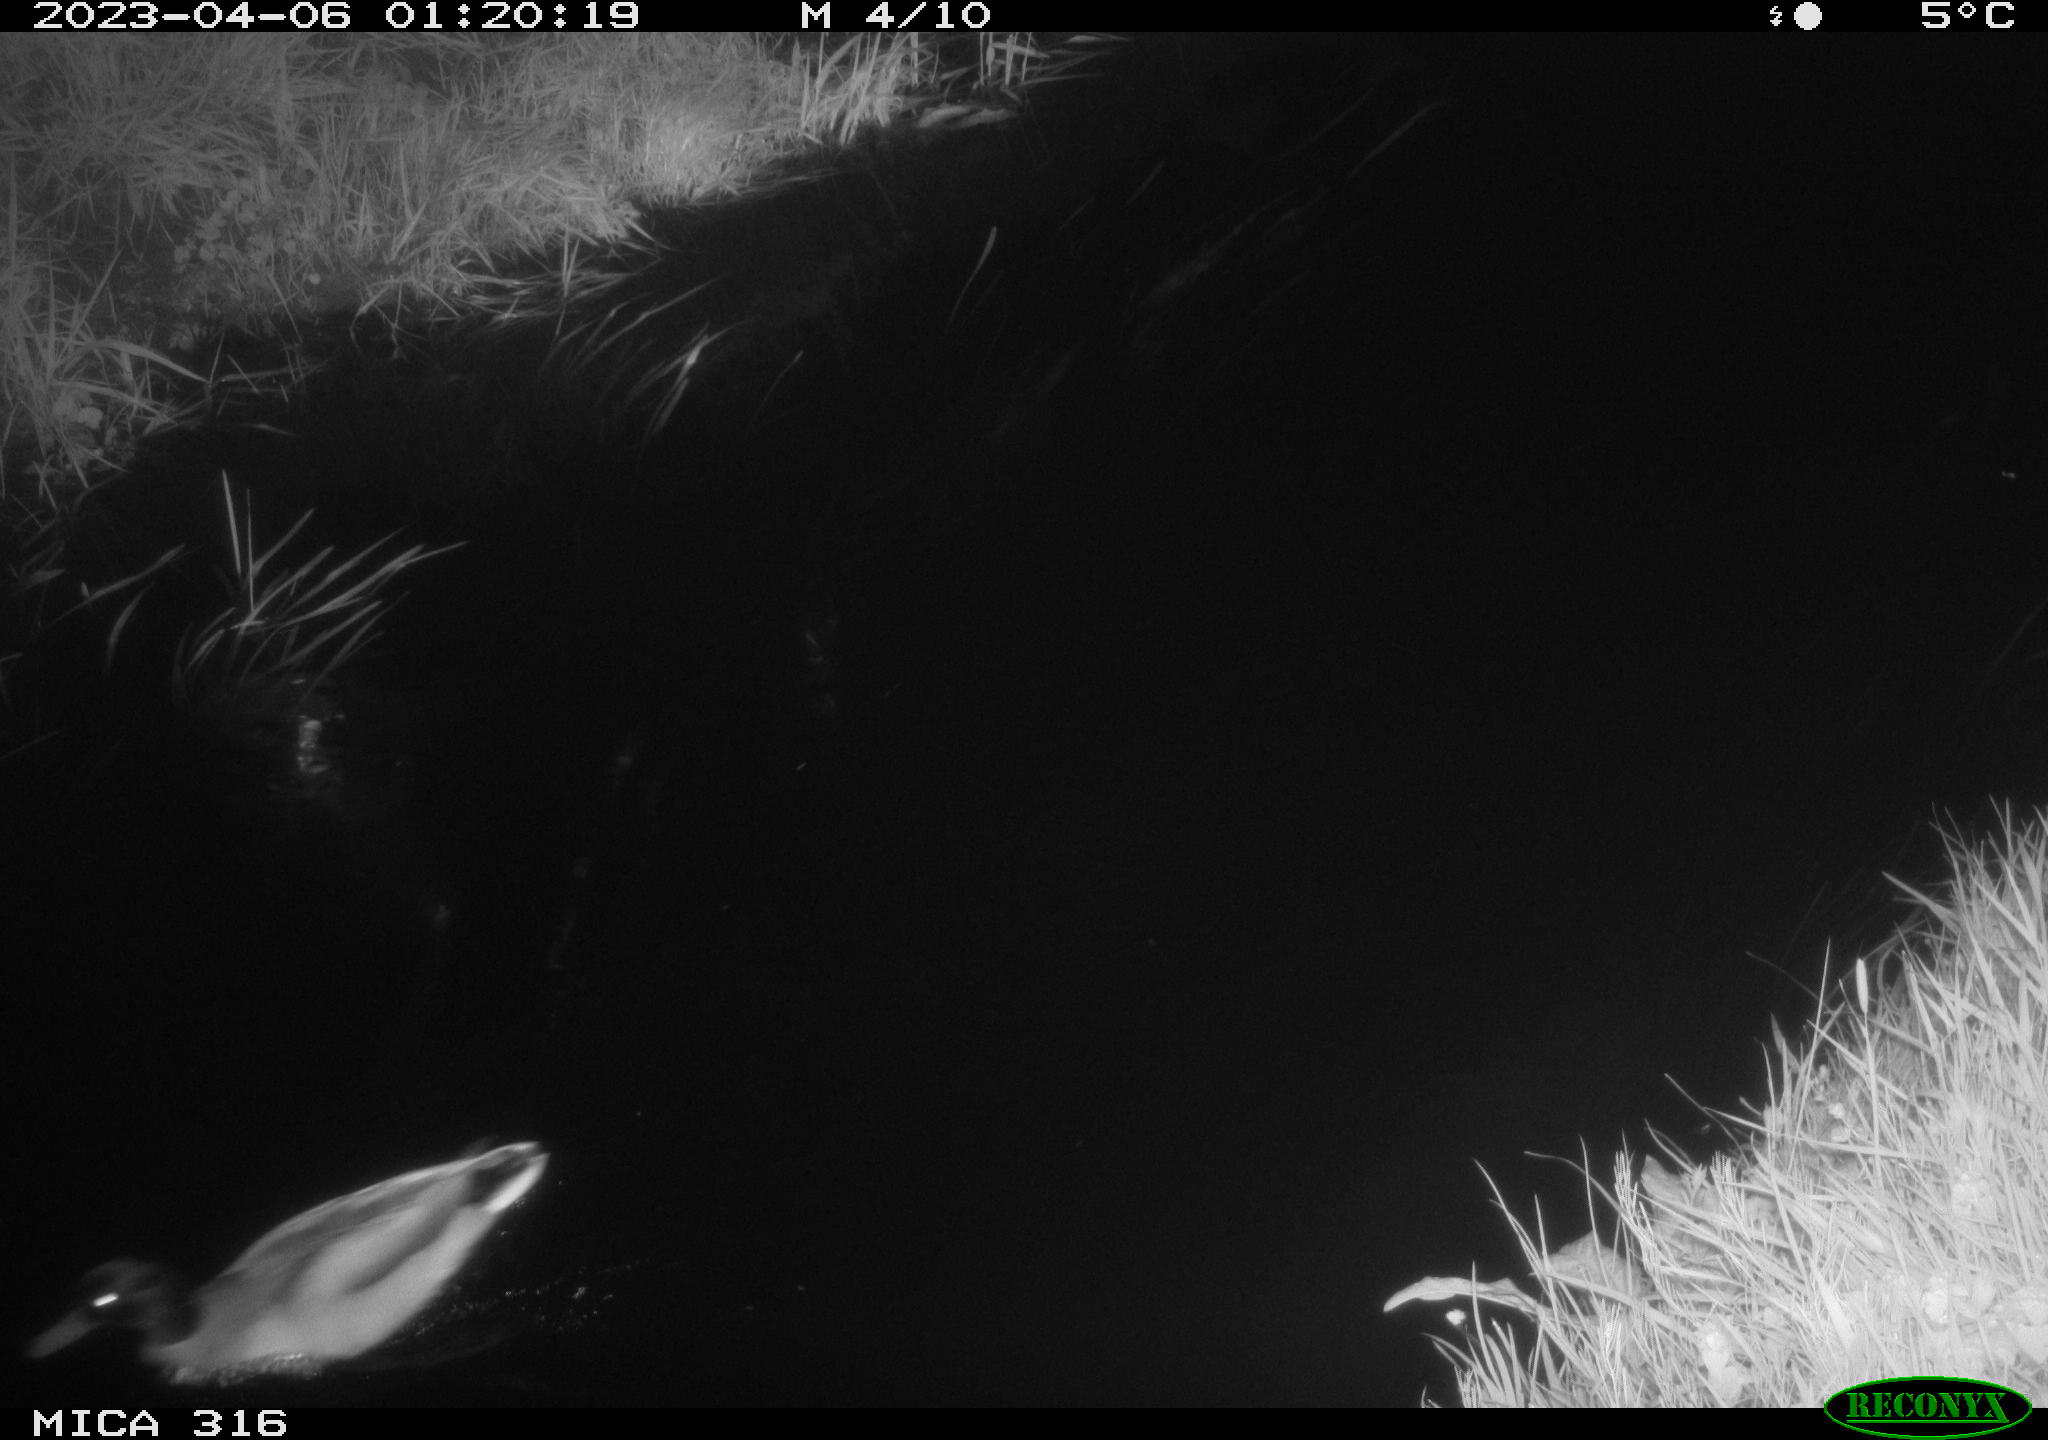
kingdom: Animalia
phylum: Chordata
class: Aves
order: Anseriformes
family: Anatidae
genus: Anas
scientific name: Anas
